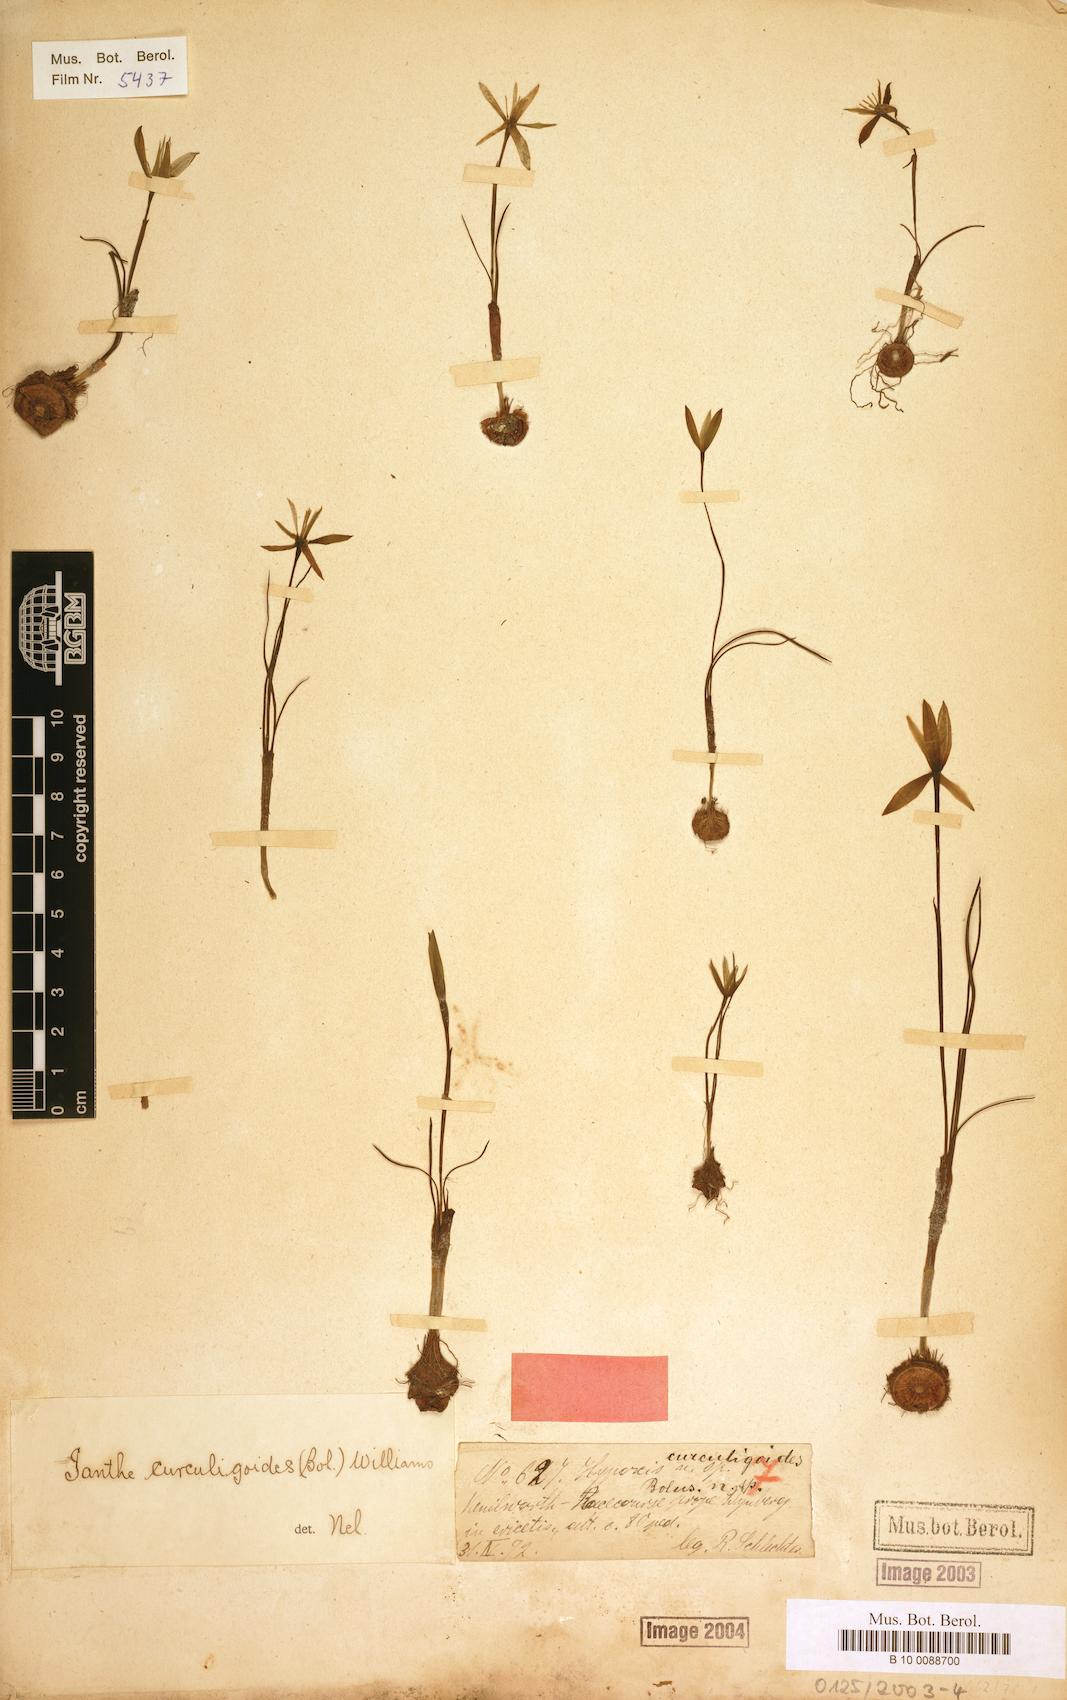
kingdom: Plantae
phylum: Tracheophyta
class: Liliopsida
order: Asparagales
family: Hypoxidaceae
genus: Pauridia
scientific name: Pauridia curculigoides
